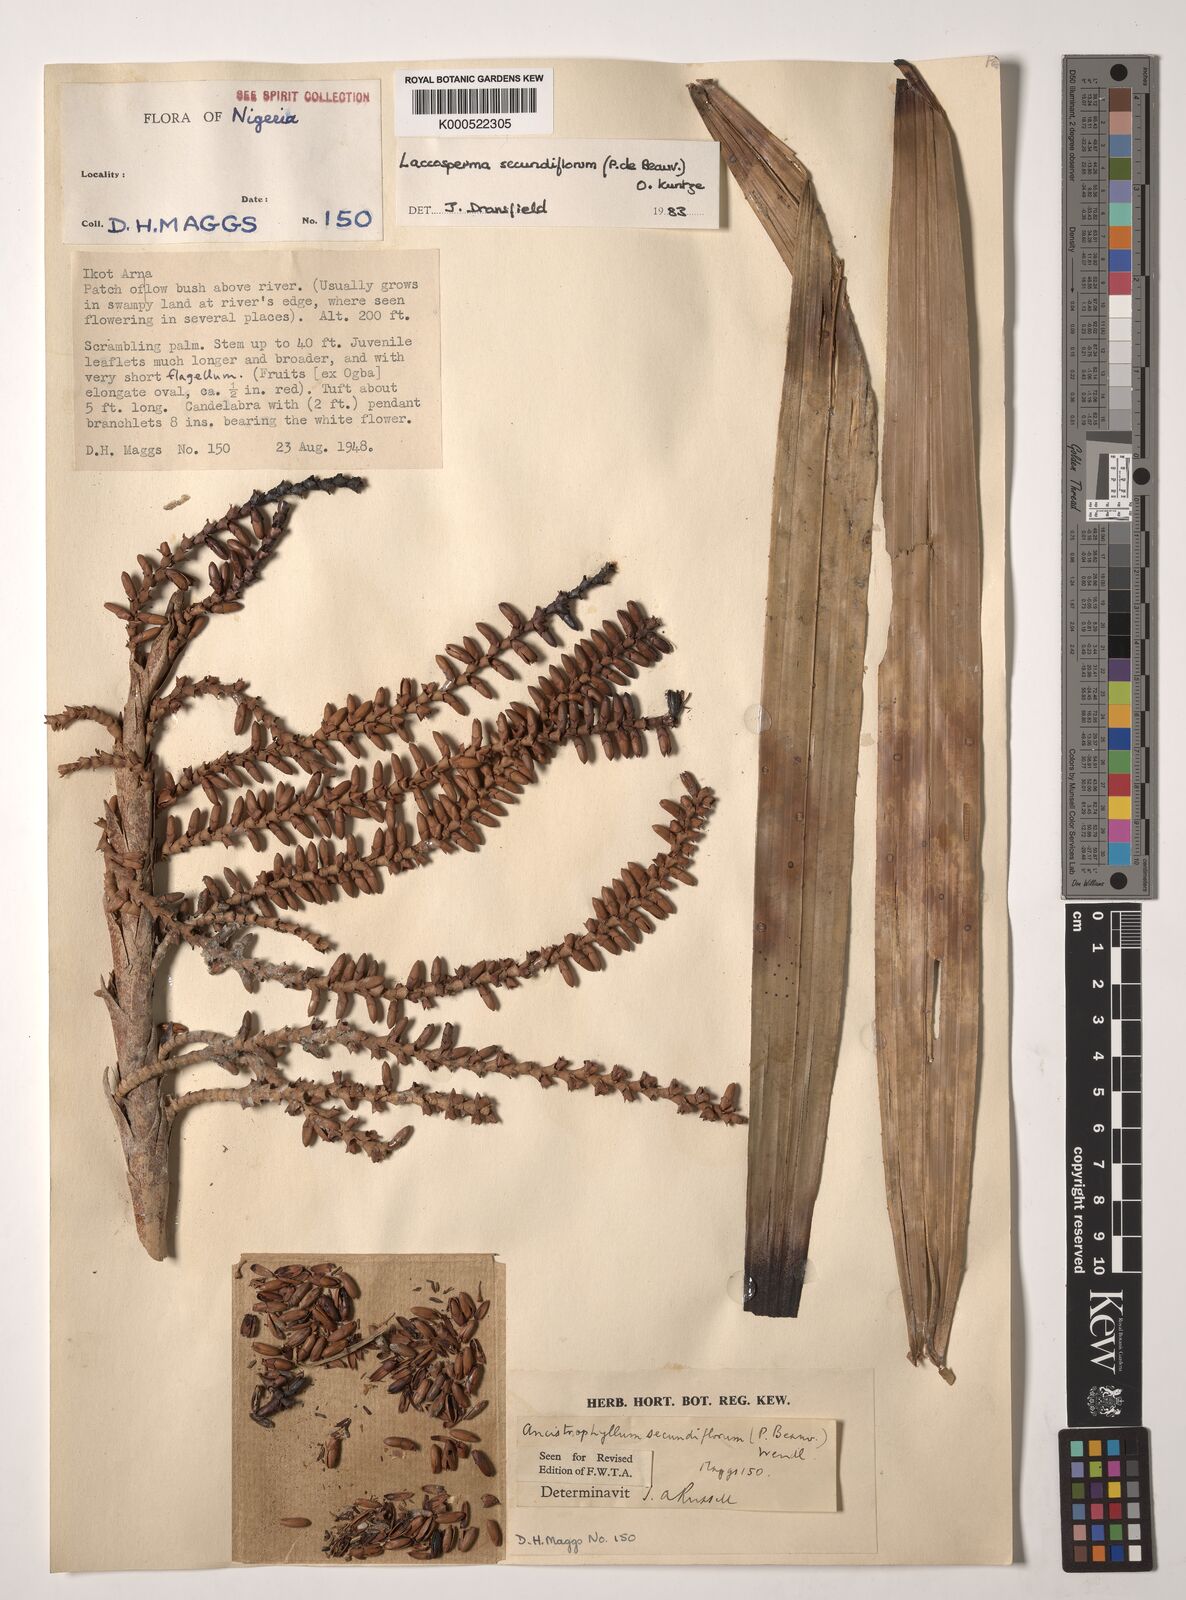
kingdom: Plantae
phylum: Tracheophyta
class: Liliopsida
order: Arecales
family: Arecaceae
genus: Laccosperma
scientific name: Laccosperma secundiflorum
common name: Rattan
